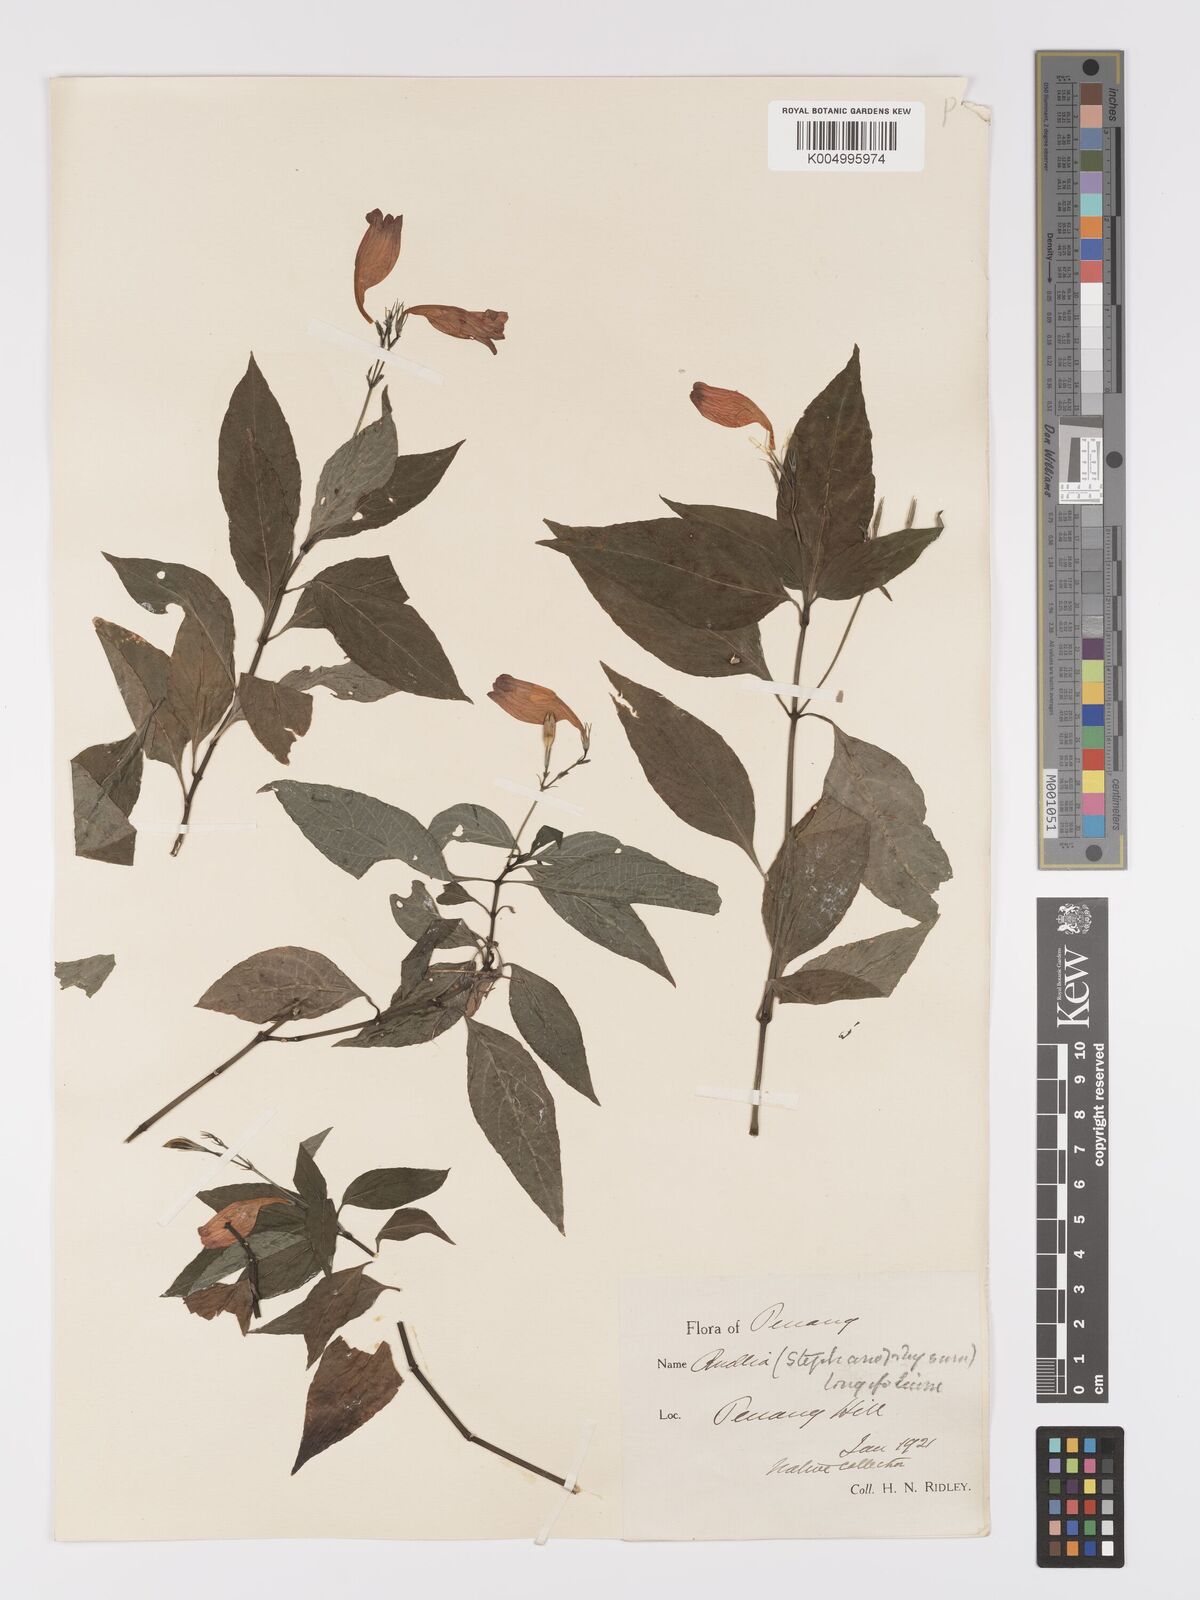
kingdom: Plantae
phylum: Tracheophyta
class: Magnoliopsida
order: Lamiales
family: Acanthaceae
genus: Ruellia
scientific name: Ruellia amoena
